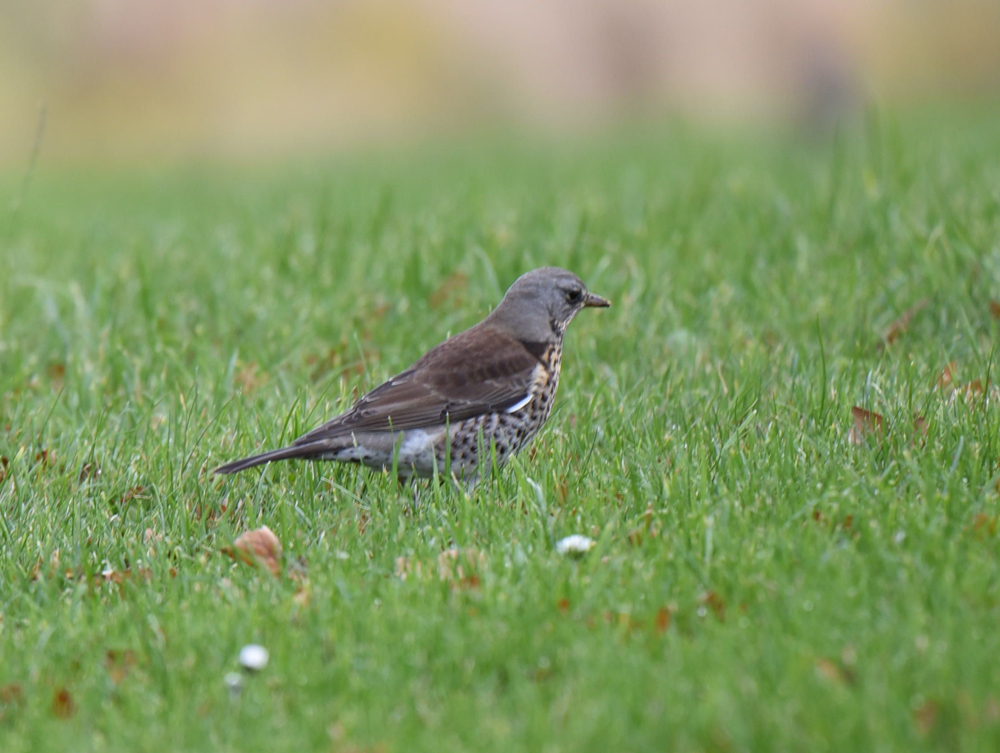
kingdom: Animalia
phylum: Chordata
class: Aves
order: Passeriformes
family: Turdidae
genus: Turdus
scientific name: Turdus pilaris
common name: Fieldfare
